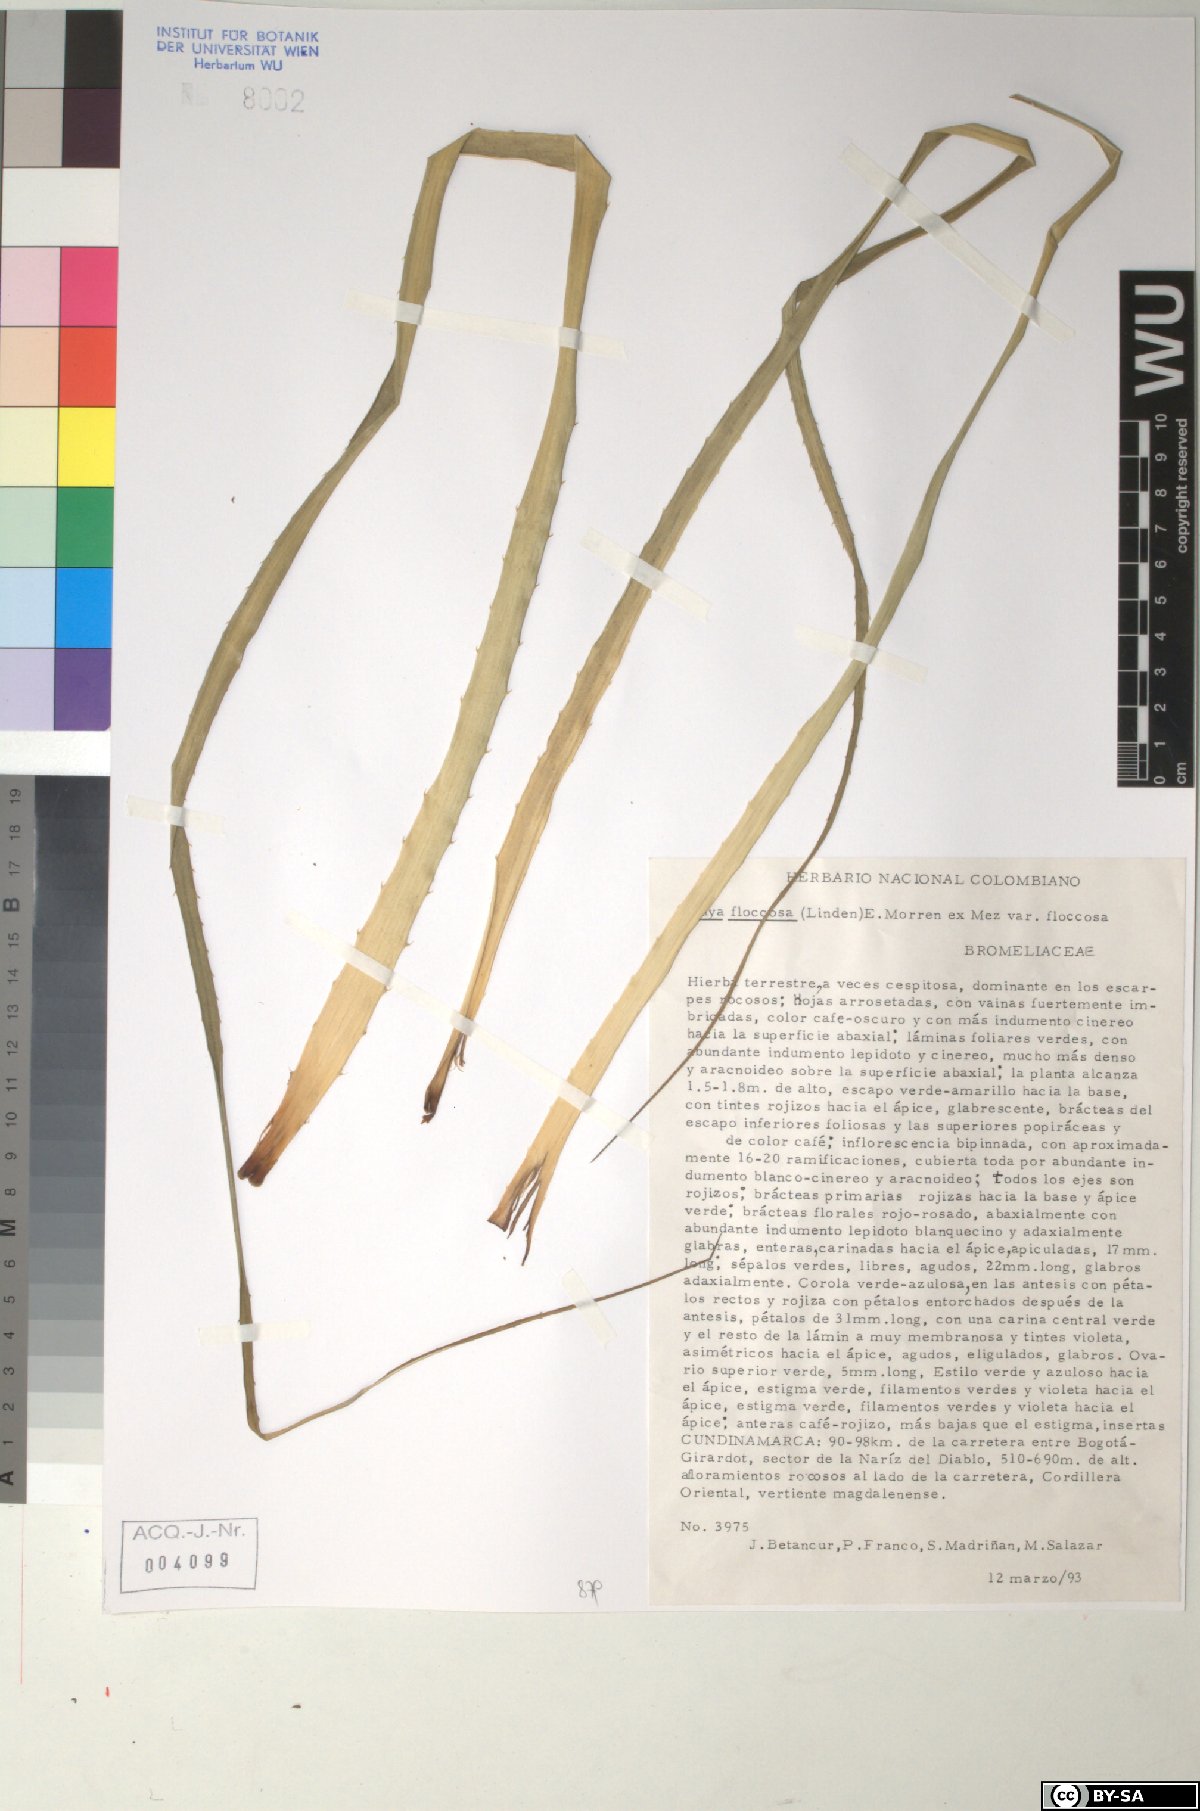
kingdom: Plantae
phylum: Tracheophyta
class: Liliopsida
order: Poales
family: Bromeliaceae
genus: Puya
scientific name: Puya floccosa
